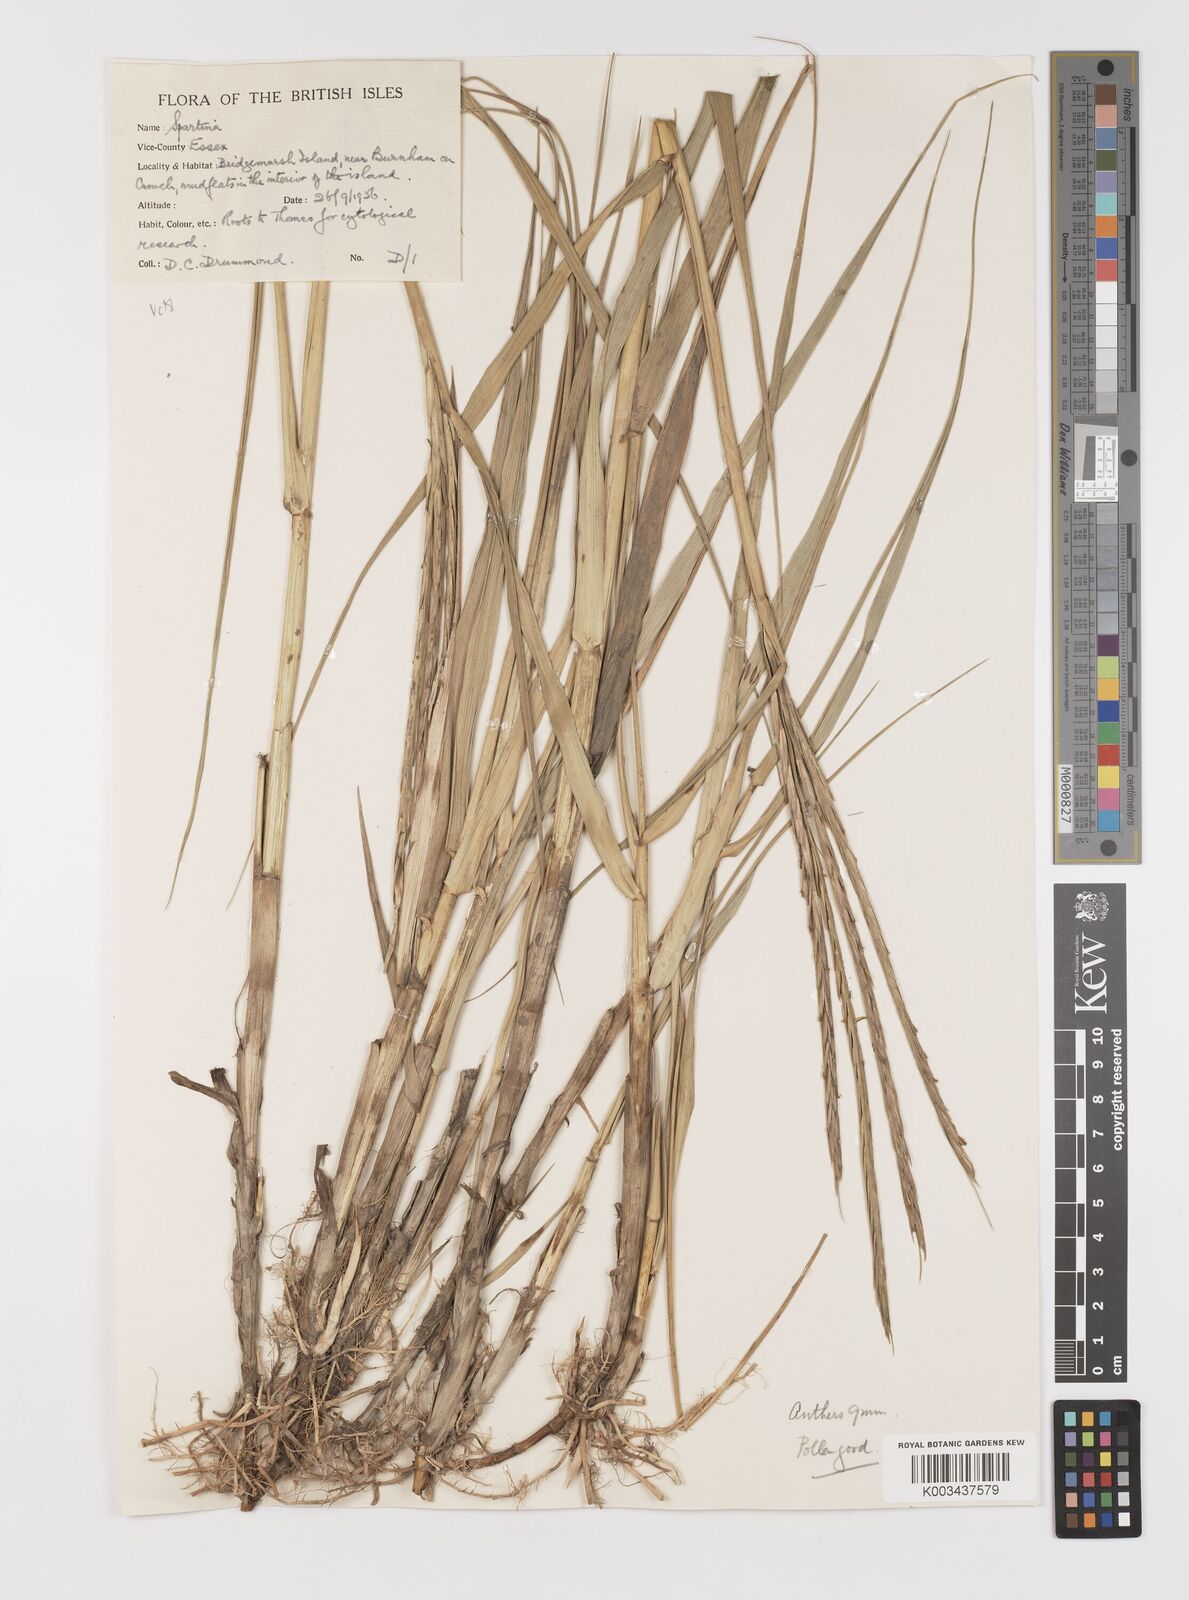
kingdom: Plantae
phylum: Tracheophyta
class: Liliopsida
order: Poales
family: Poaceae
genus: Sporobolus
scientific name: Sporobolus anglicus
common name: English cordgrass
